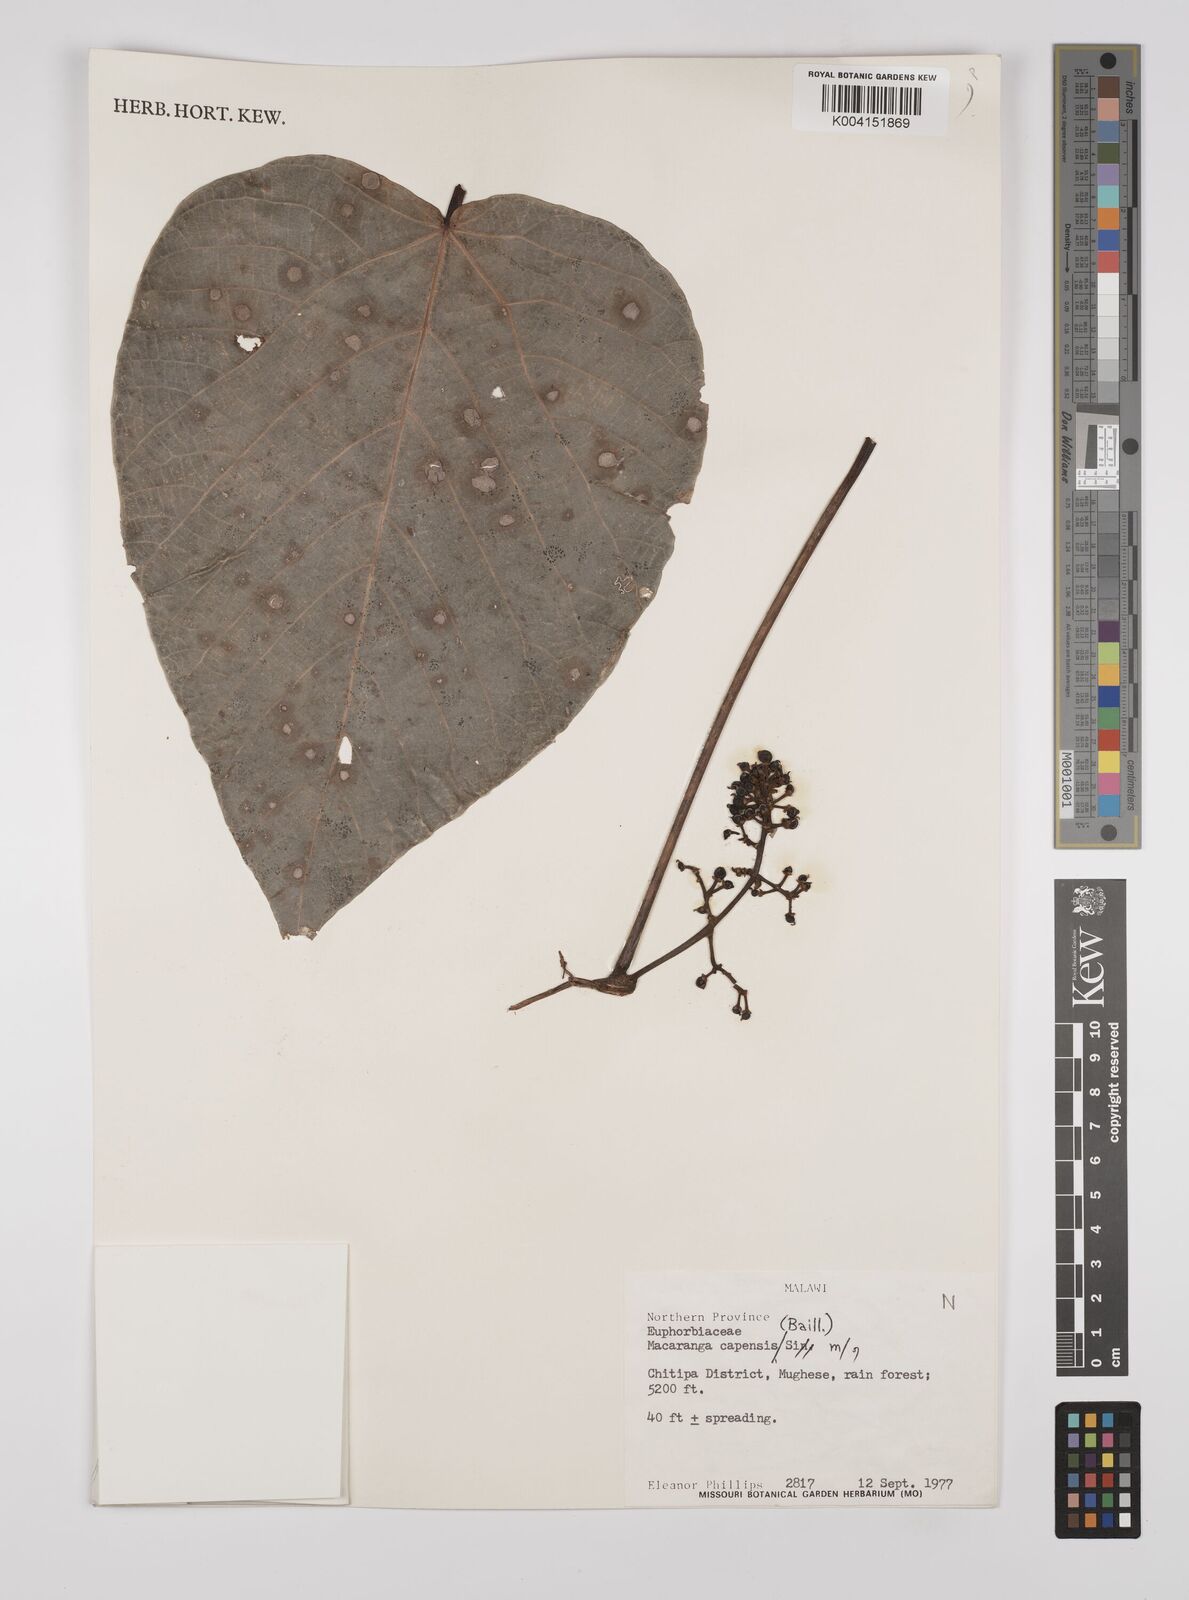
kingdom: Plantae
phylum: Tracheophyta
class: Magnoliopsida
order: Malpighiales
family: Euphorbiaceae
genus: Macaranga
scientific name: Macaranga capensis
